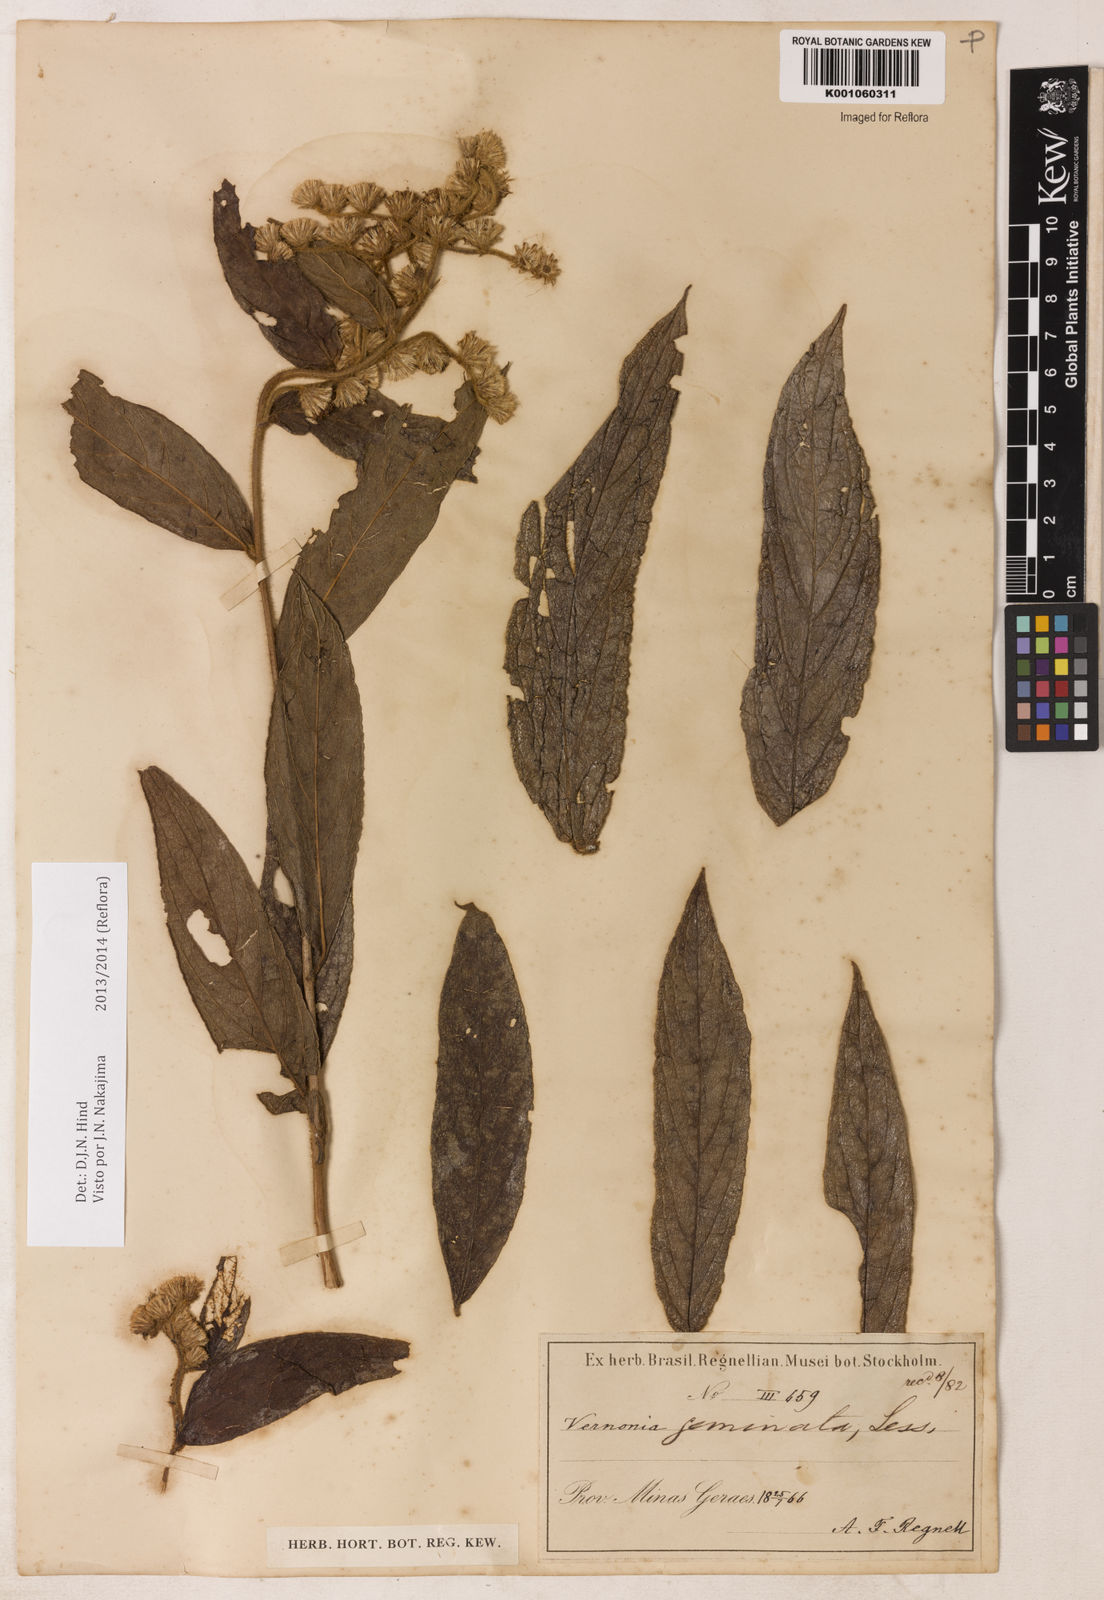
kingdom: Plantae
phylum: Tracheophyta
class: Magnoliopsida
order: Asterales
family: Asteraceae
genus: Lepidaploa
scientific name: Lepidaploa canescens
